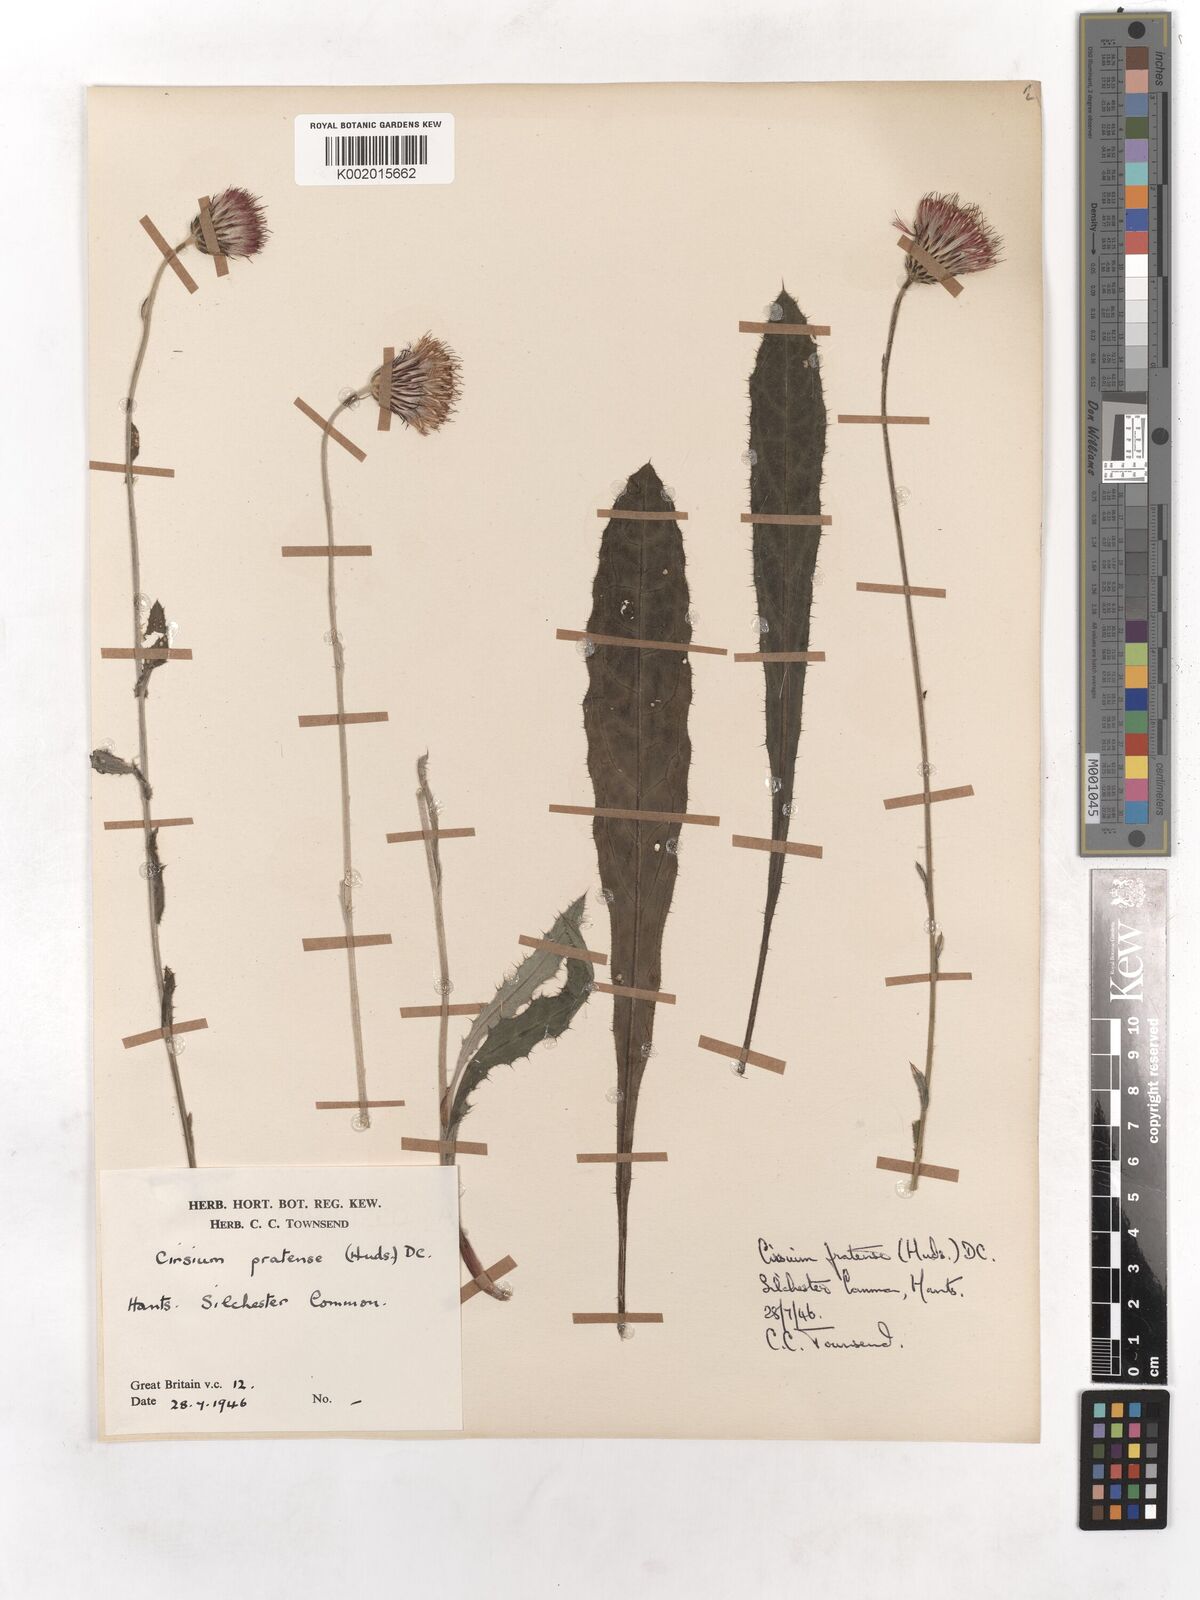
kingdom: Plantae
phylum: Tracheophyta
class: Magnoliopsida
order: Asterales
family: Asteraceae
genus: Cirsium
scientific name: Cirsium dissectum
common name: Meadow thistle
